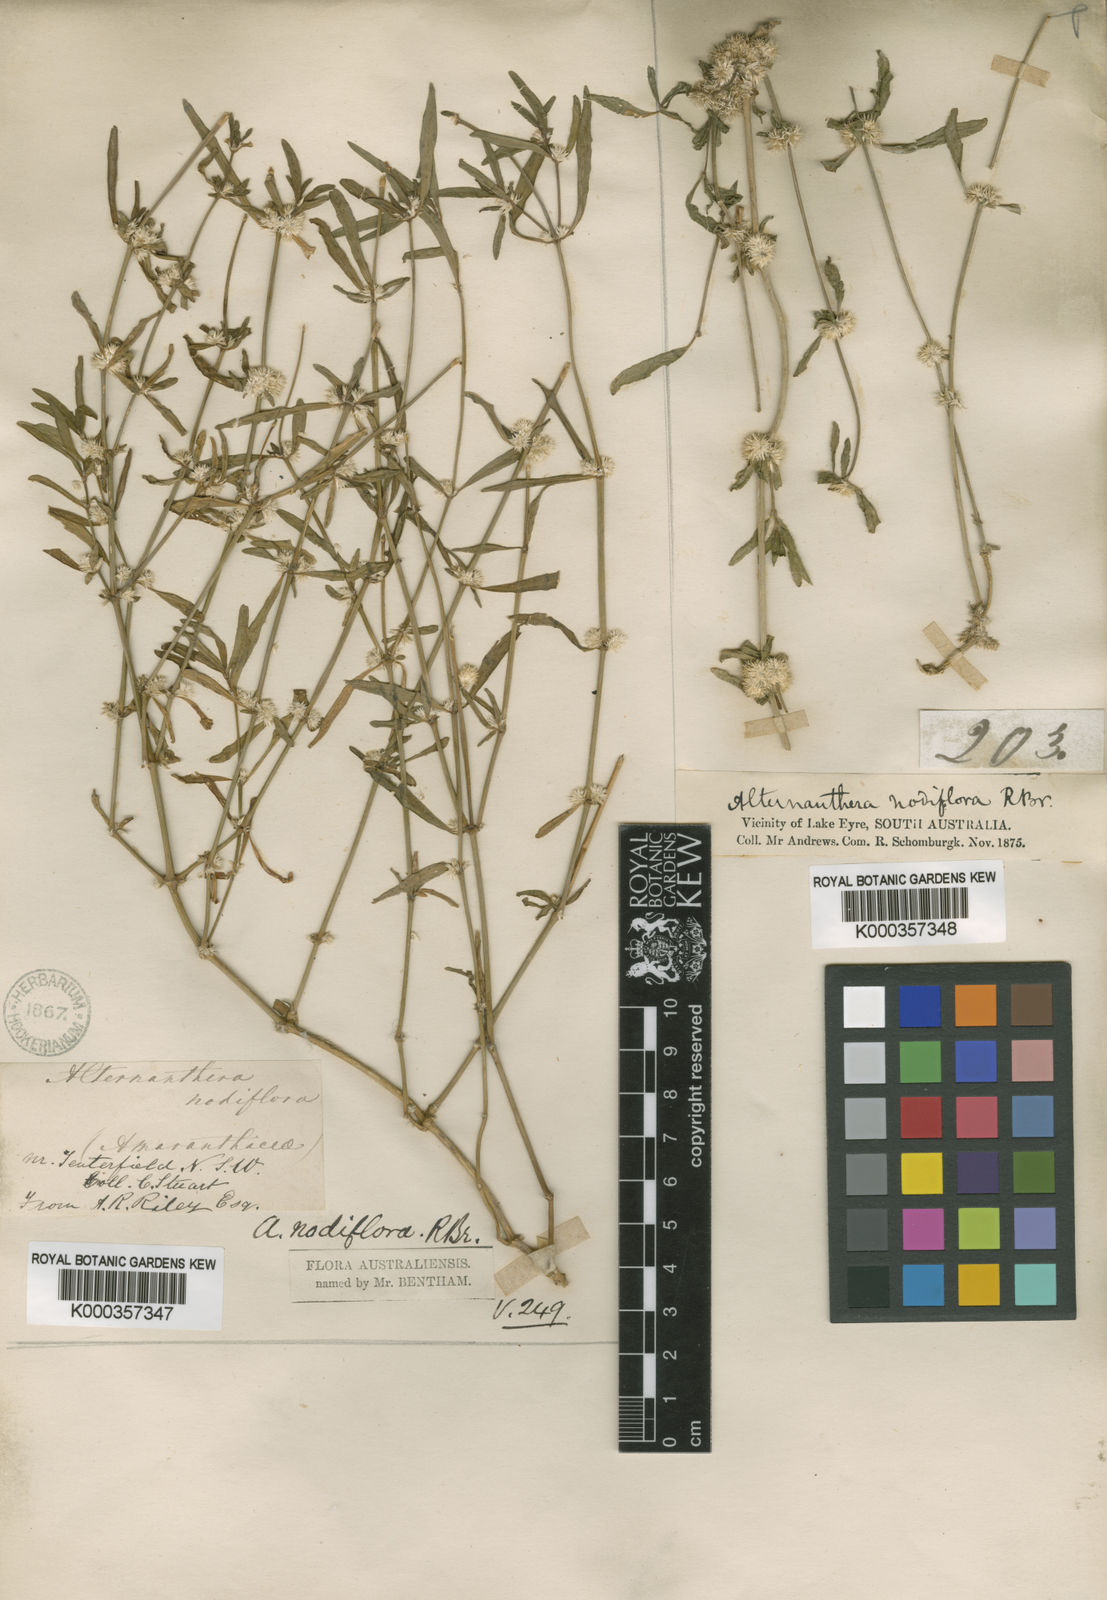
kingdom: Plantae
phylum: Tracheophyta
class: Magnoliopsida
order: Caryophyllales
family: Amaranthaceae
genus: Alternanthera
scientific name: Alternanthera sessilis
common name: Sessile joyweed
